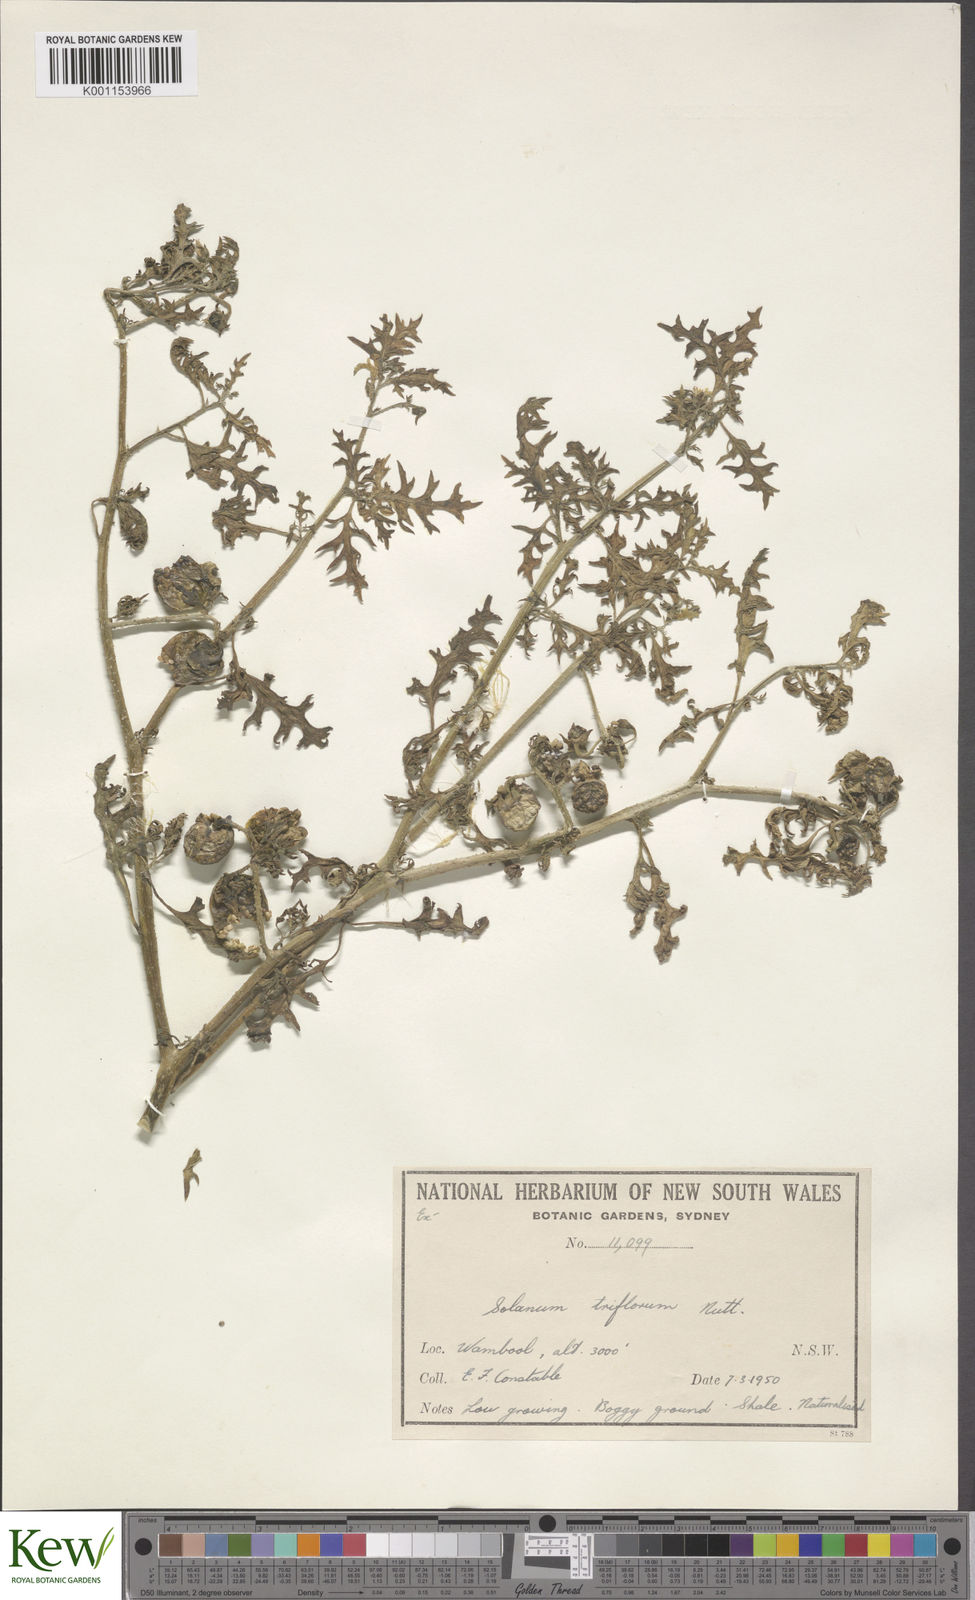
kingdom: Plantae
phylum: Tracheophyta
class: Magnoliopsida
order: Solanales
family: Solanaceae
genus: Solanum
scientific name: Solanum triflorum
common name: Small nightshade
